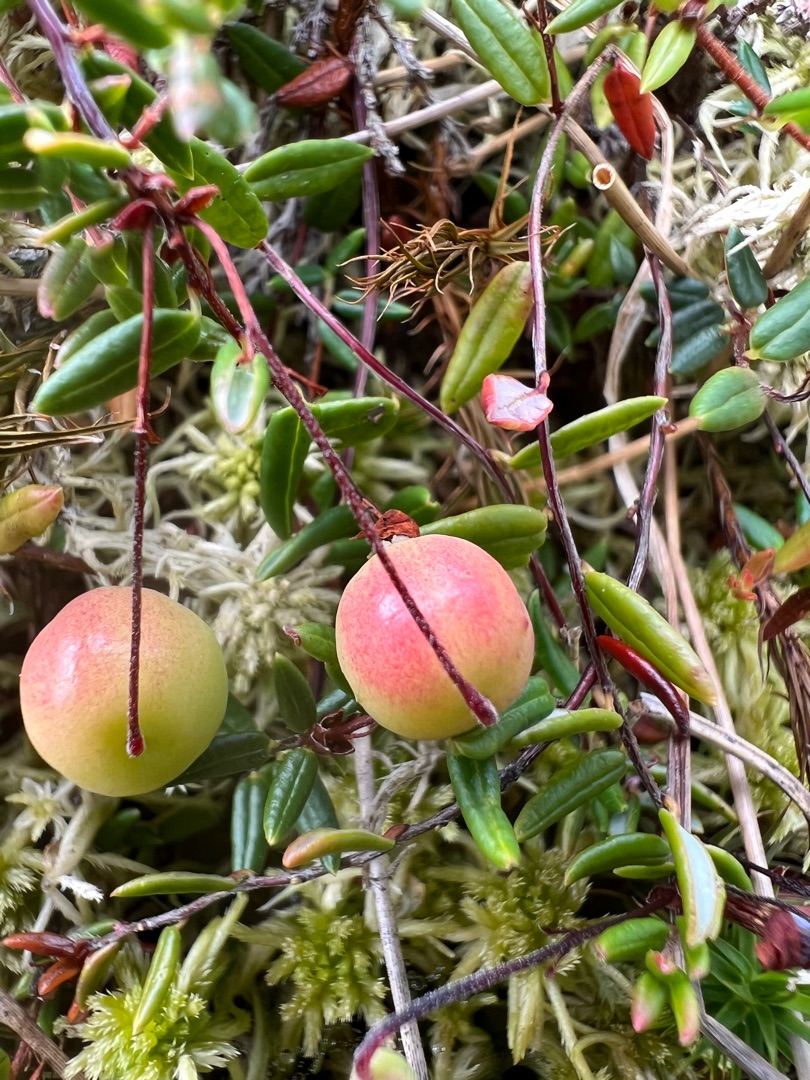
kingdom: Plantae
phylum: Tracheophyta
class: Magnoliopsida
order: Ericales
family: Ericaceae
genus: Vaccinium
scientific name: Vaccinium oxycoccos
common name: Tranebær
